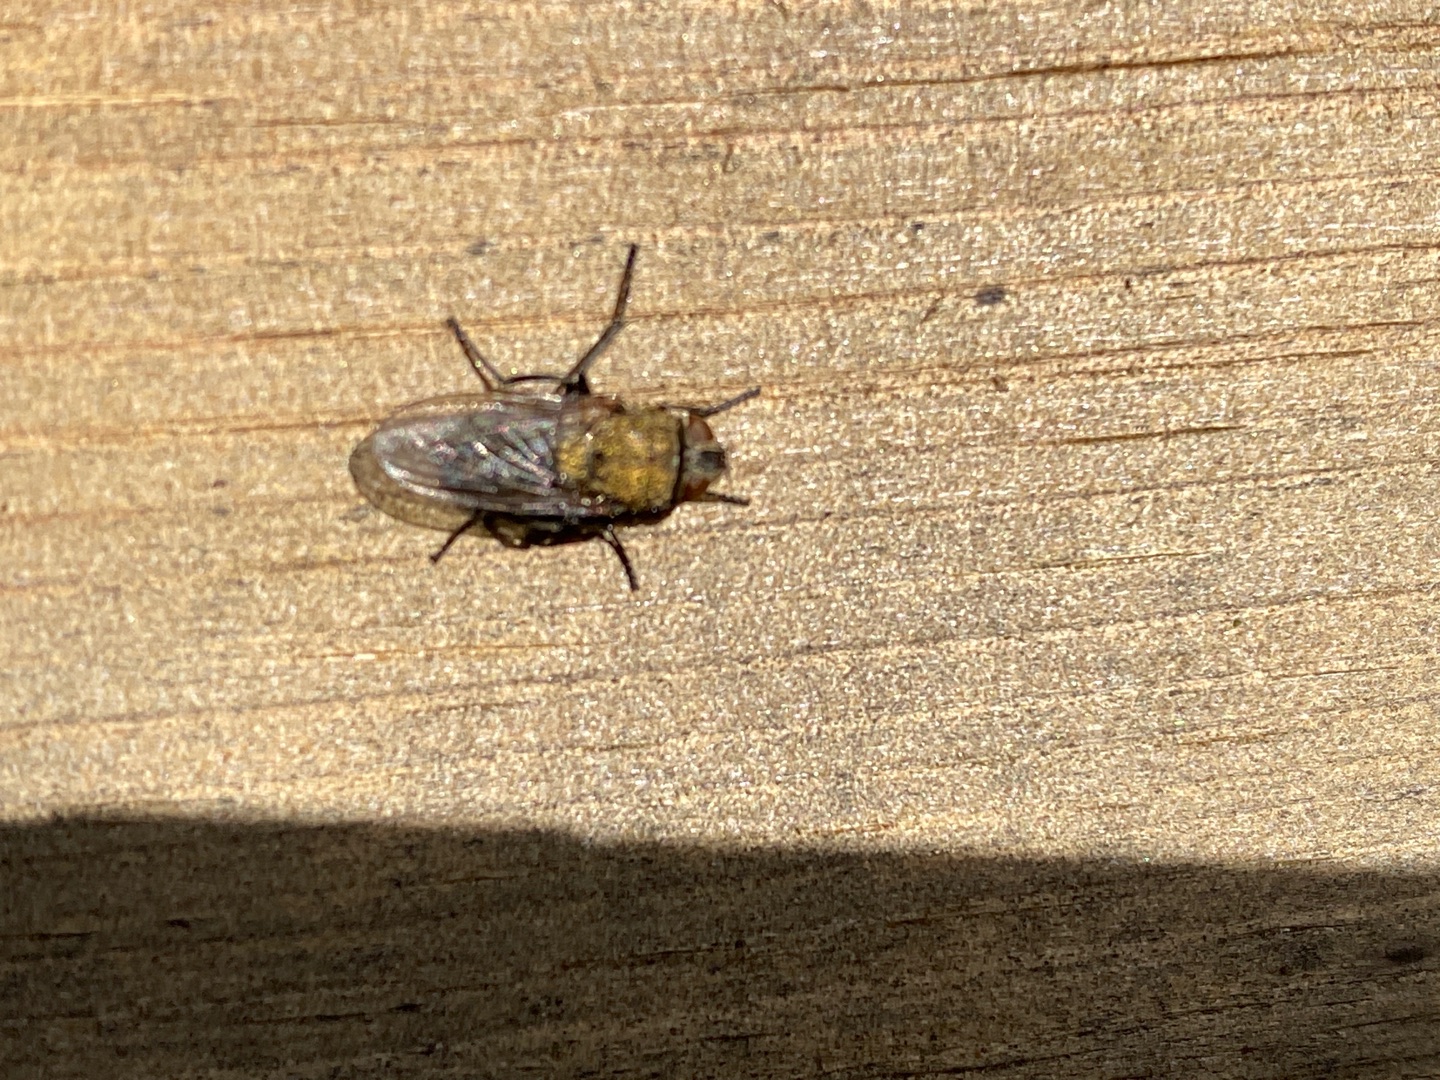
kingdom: Animalia
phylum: Arthropoda
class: Insecta
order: Diptera
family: Polleniidae
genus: Pollenia
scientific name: Pollenia
